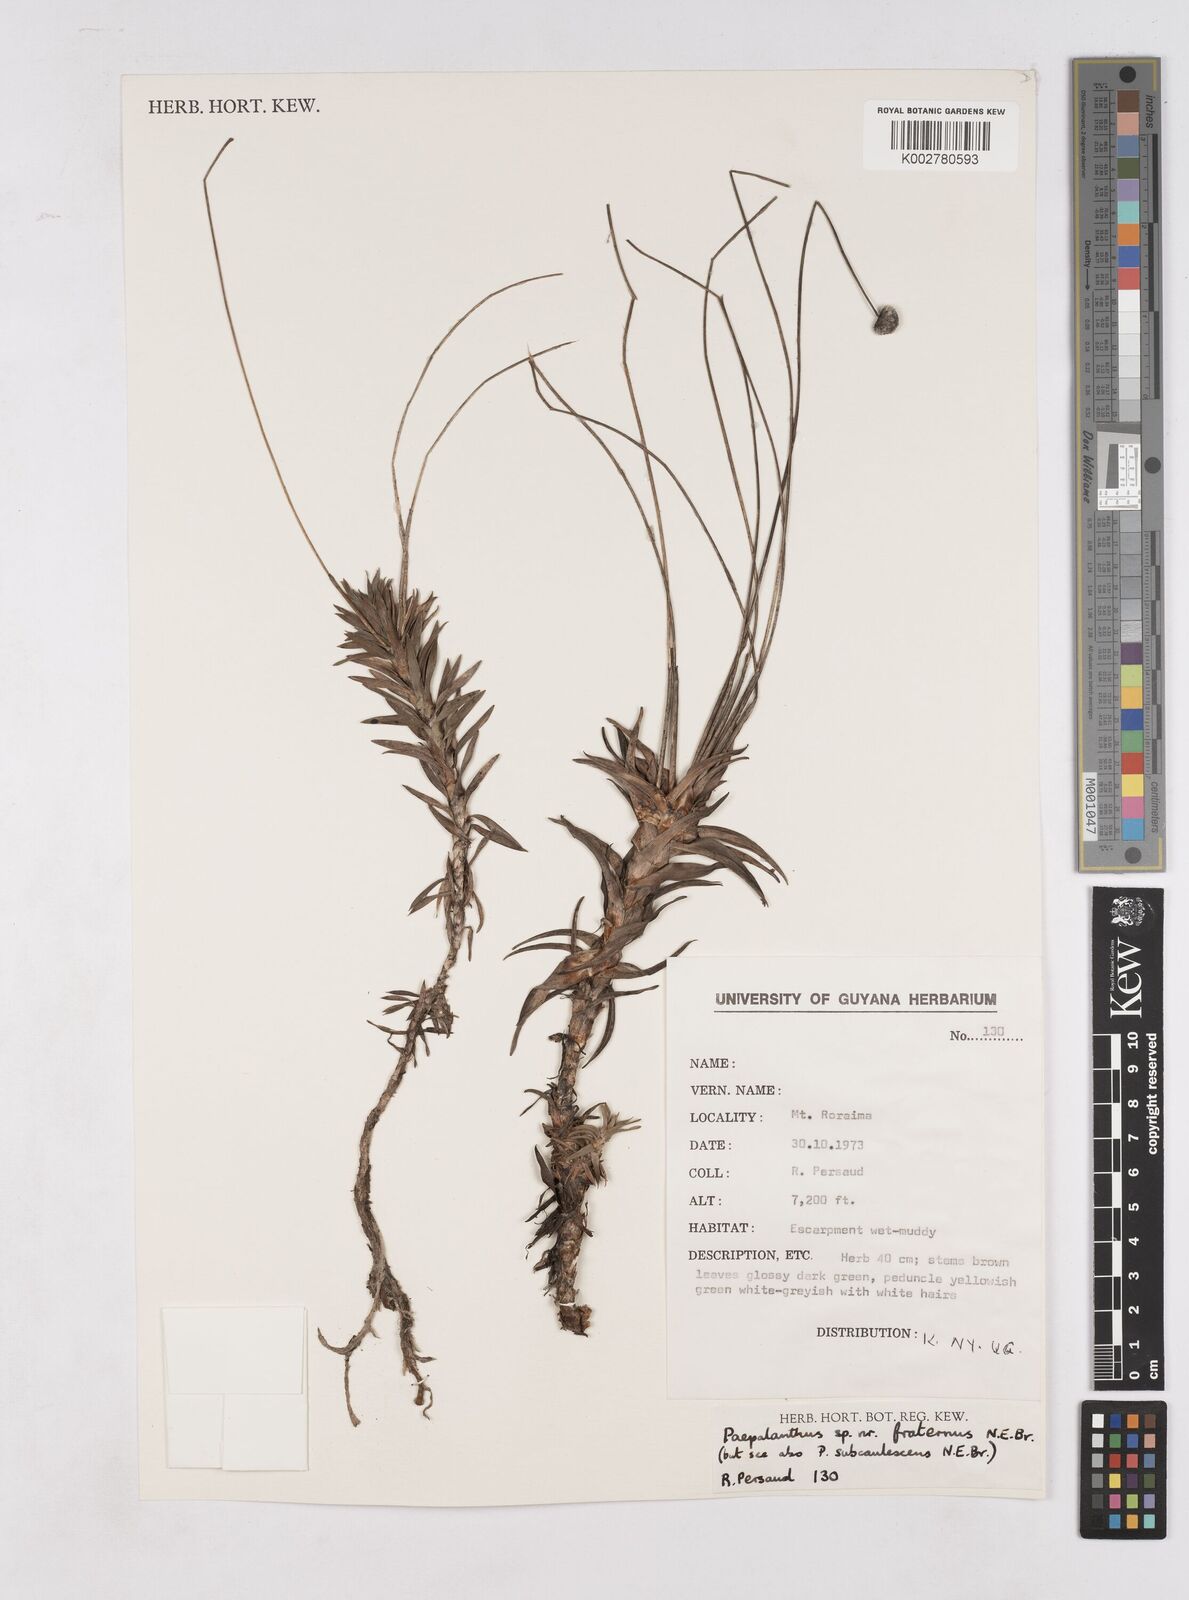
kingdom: Plantae
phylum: Tracheophyta
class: Liliopsida
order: Poales
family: Eriocaulaceae
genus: Paepalanthus
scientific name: Paepalanthus
